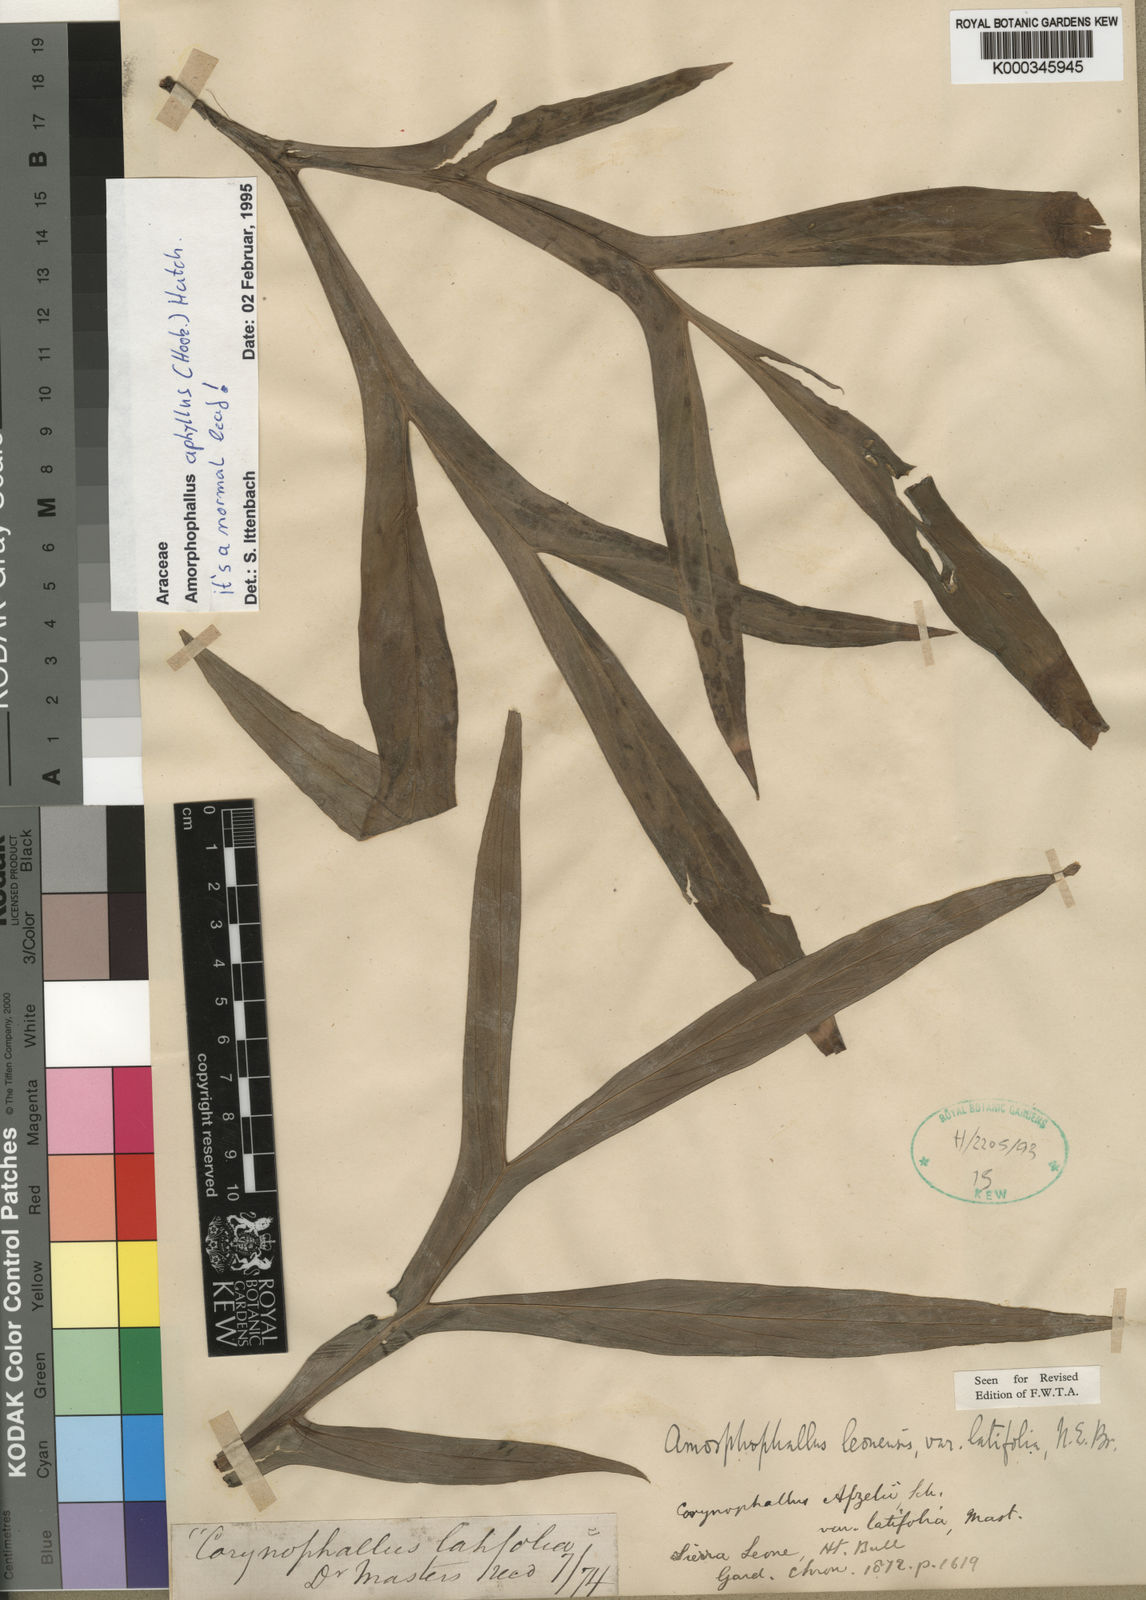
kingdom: Plantae
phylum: Tracheophyta
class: Liliopsida
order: Alismatales
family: Araceae
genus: Amorphophallus
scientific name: Amorphophallus aphyllus
